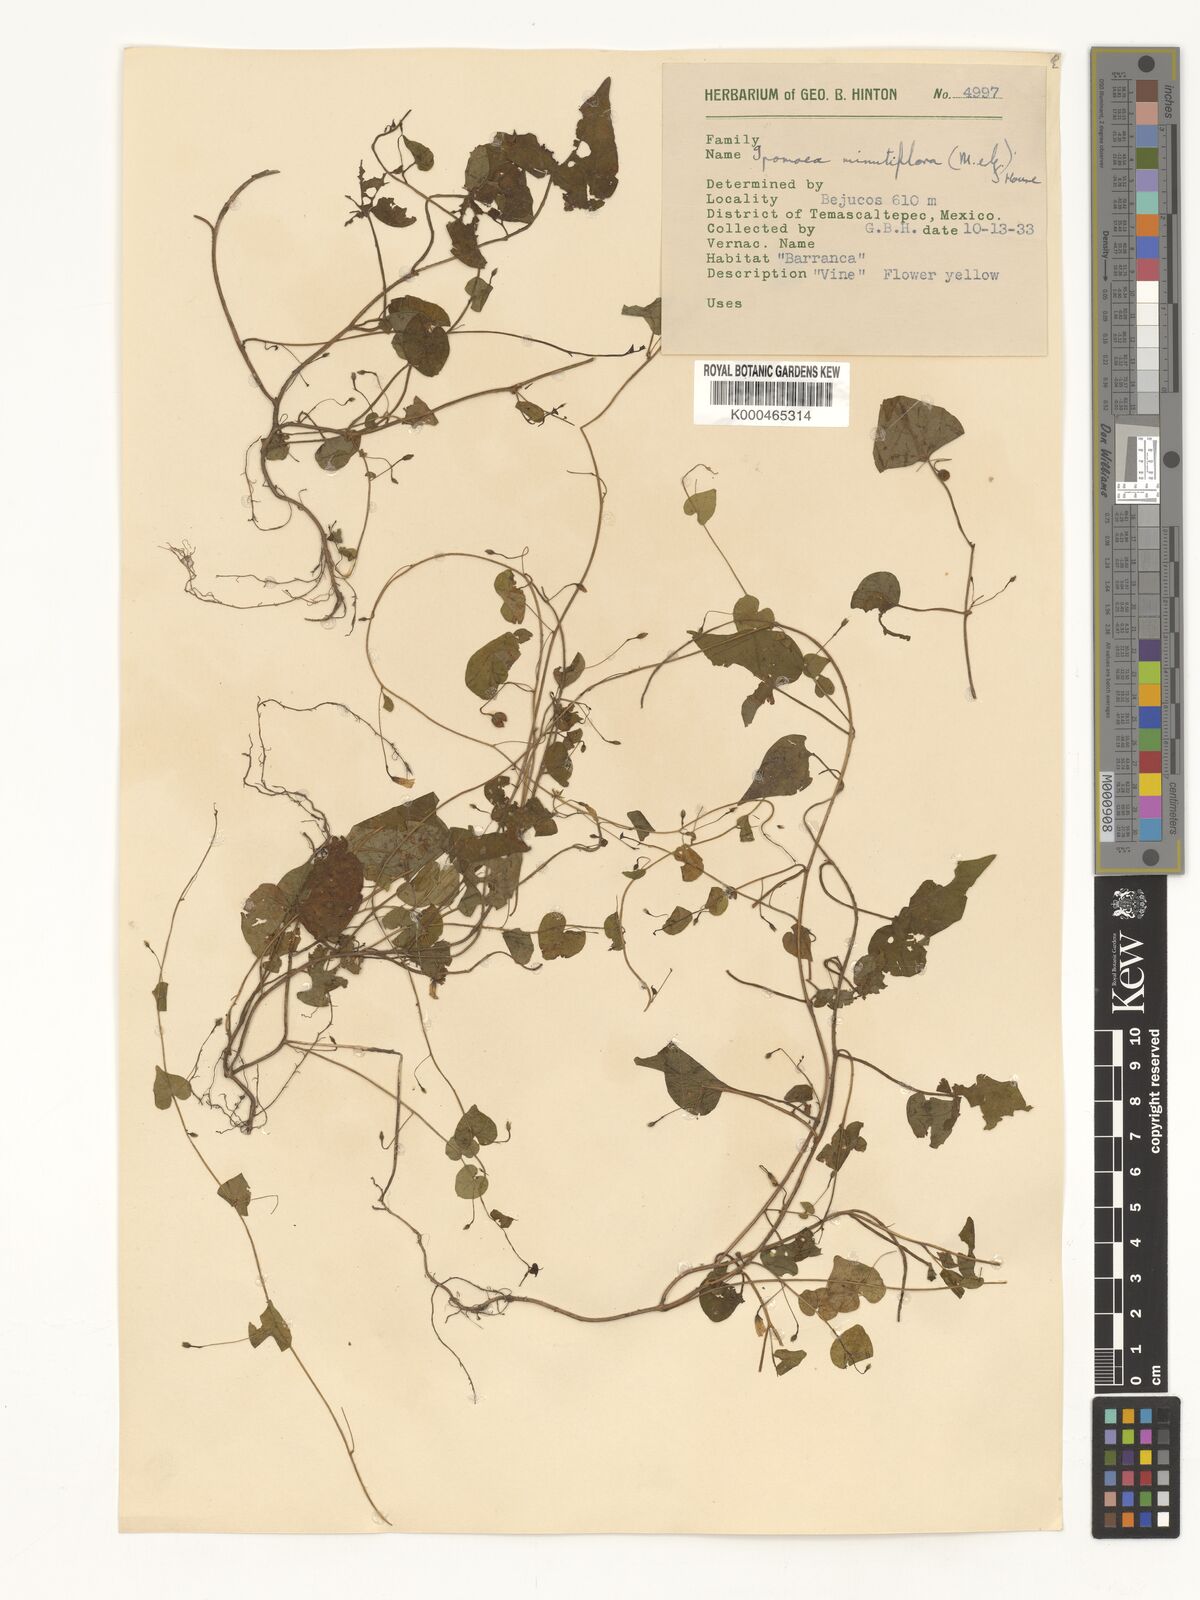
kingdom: Plantae
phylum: Tracheophyta
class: Magnoliopsida
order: Solanales
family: Convolvulaceae
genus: Ipomoea
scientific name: Ipomoea minutiflora
